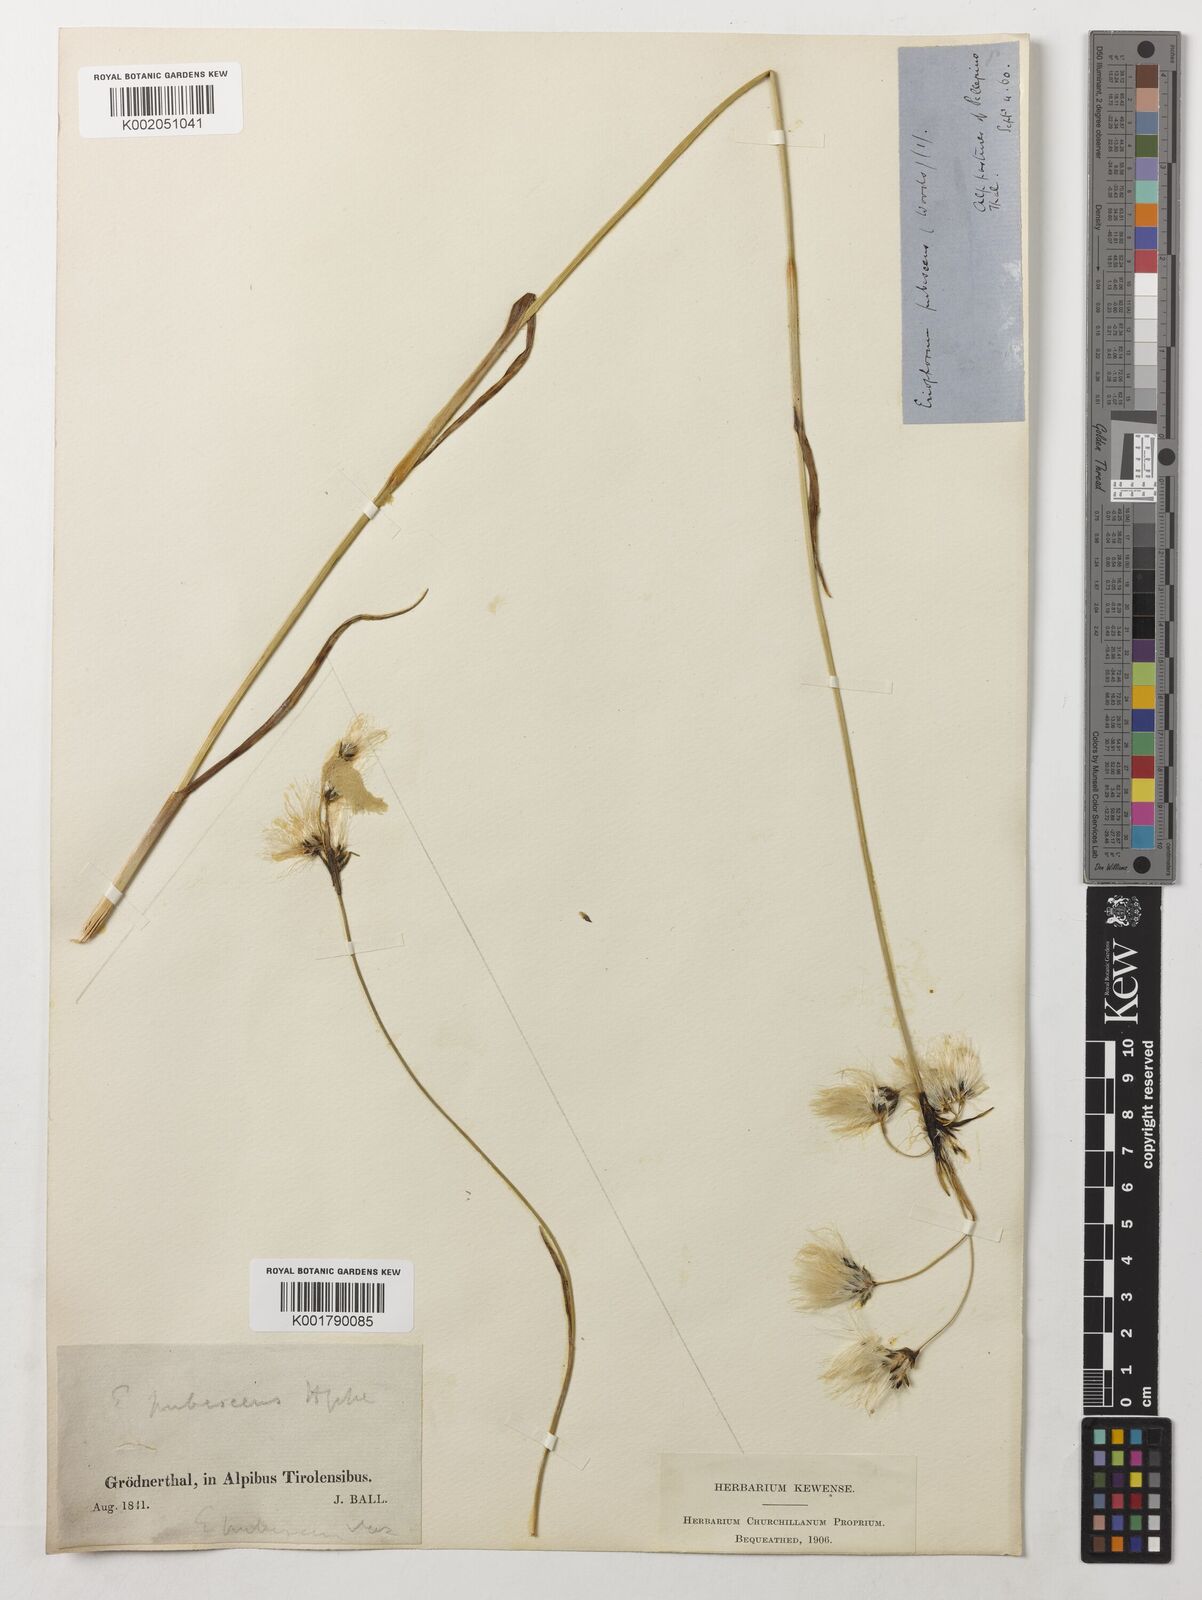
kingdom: Plantae
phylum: Tracheophyta
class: Liliopsida
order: Poales
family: Cyperaceae
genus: Eriophorum
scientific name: Eriophorum latifolium
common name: Broad-leaved cottongrass
